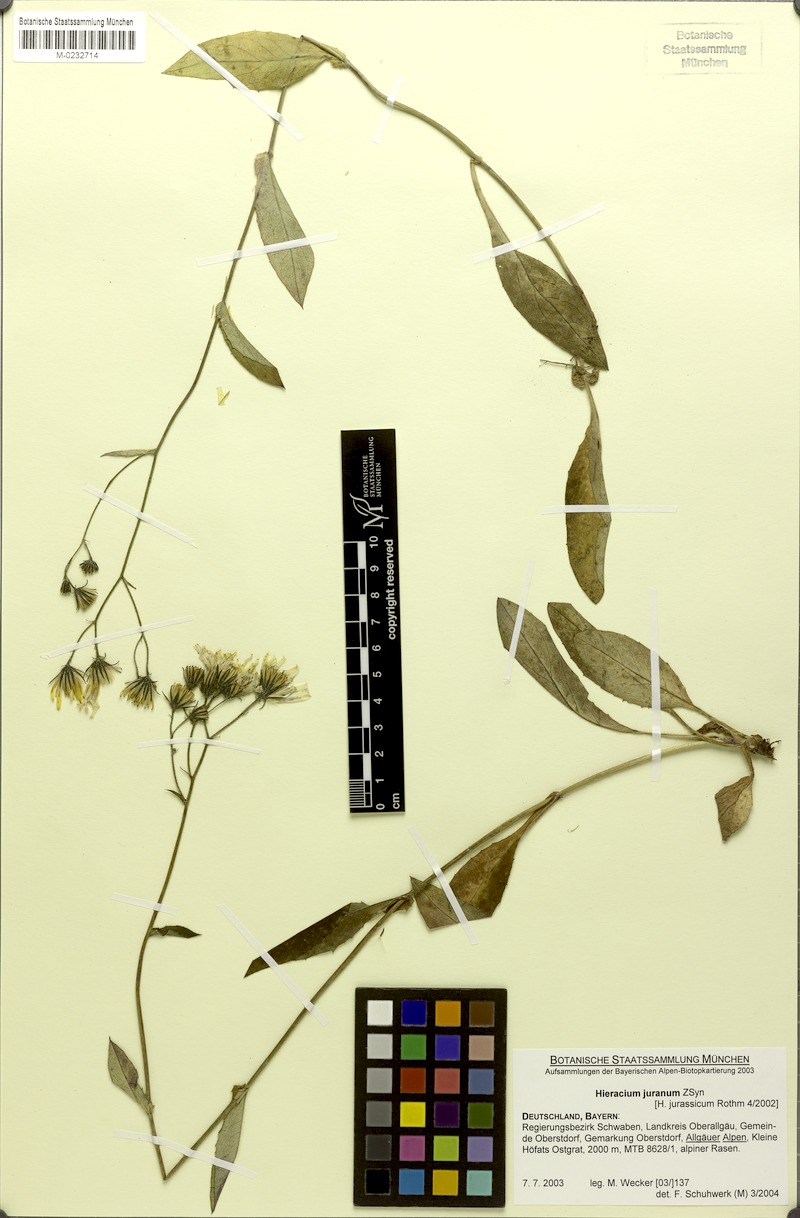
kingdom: Plantae
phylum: Tracheophyta
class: Magnoliopsida
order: Asterales
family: Asteraceae
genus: Hieracium
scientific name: Hieracium jurassicum
